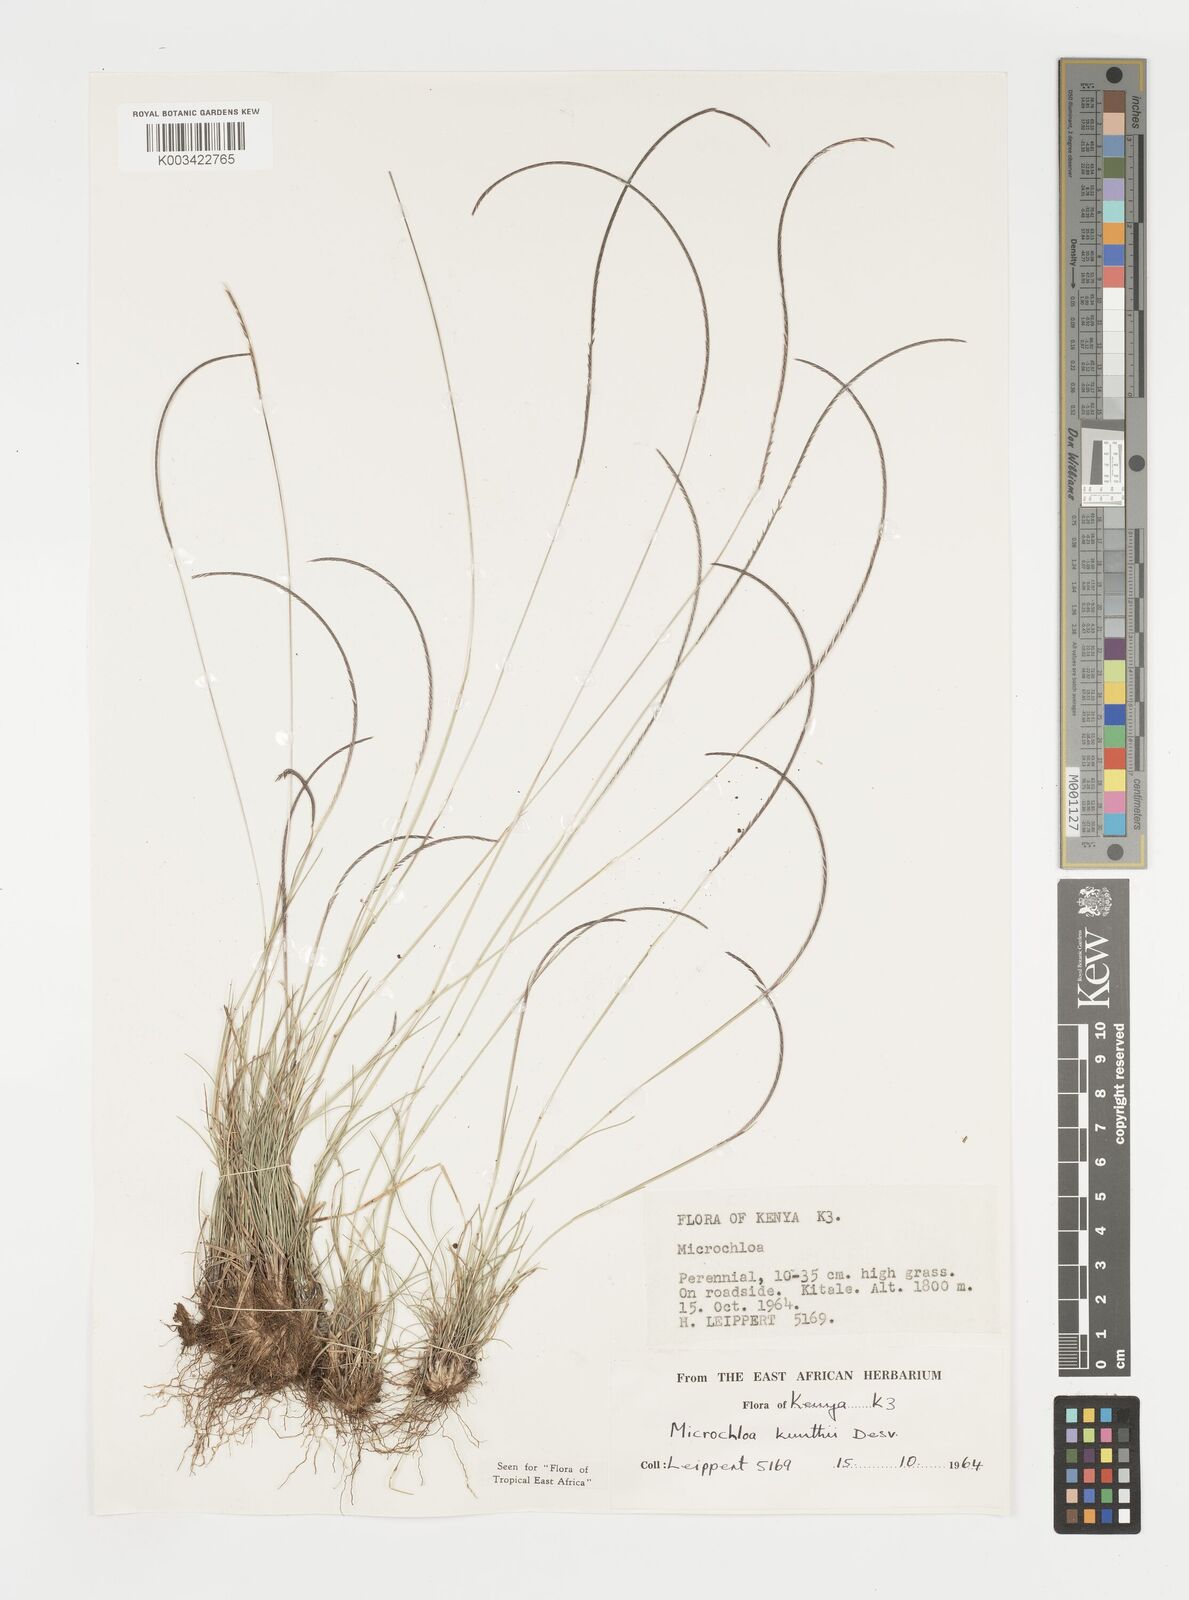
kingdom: Plantae
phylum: Tracheophyta
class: Liliopsida
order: Poales
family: Poaceae
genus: Microchloa
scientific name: Microchloa kunthii
